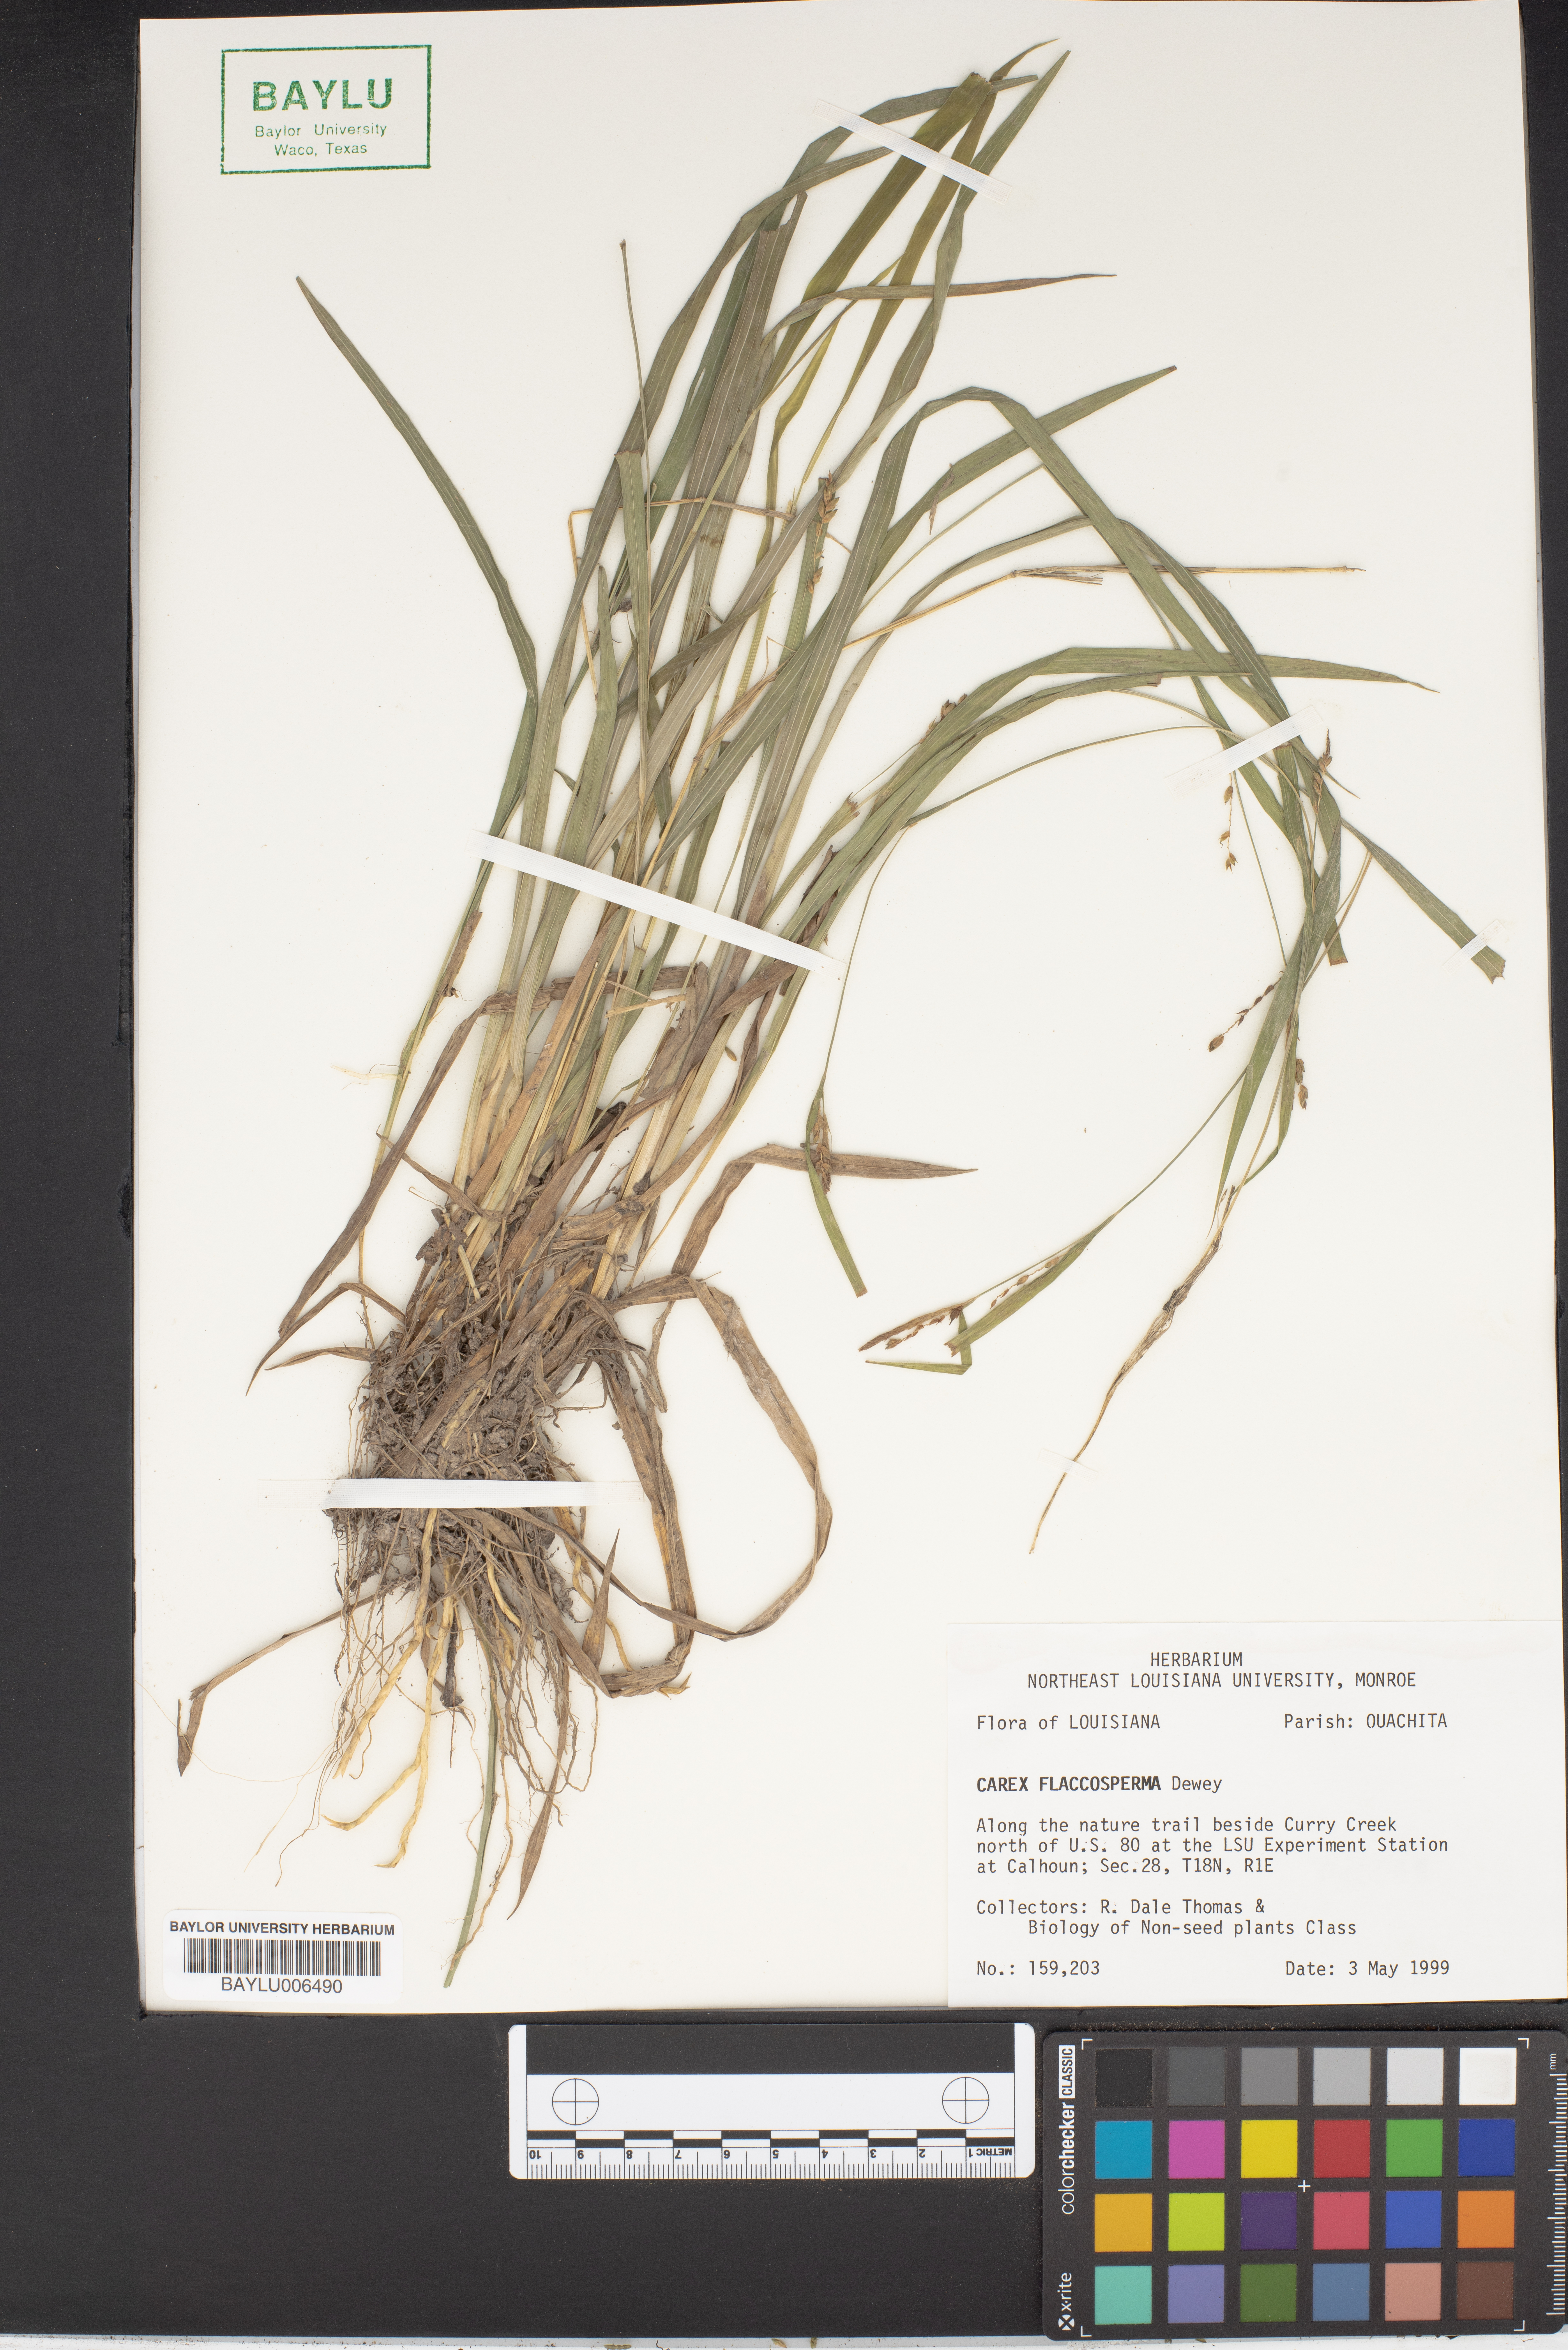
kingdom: Plantae
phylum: Tracheophyta
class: Liliopsida
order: Poales
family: Cyperaceae
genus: Carex
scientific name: Carex flaccosperma
